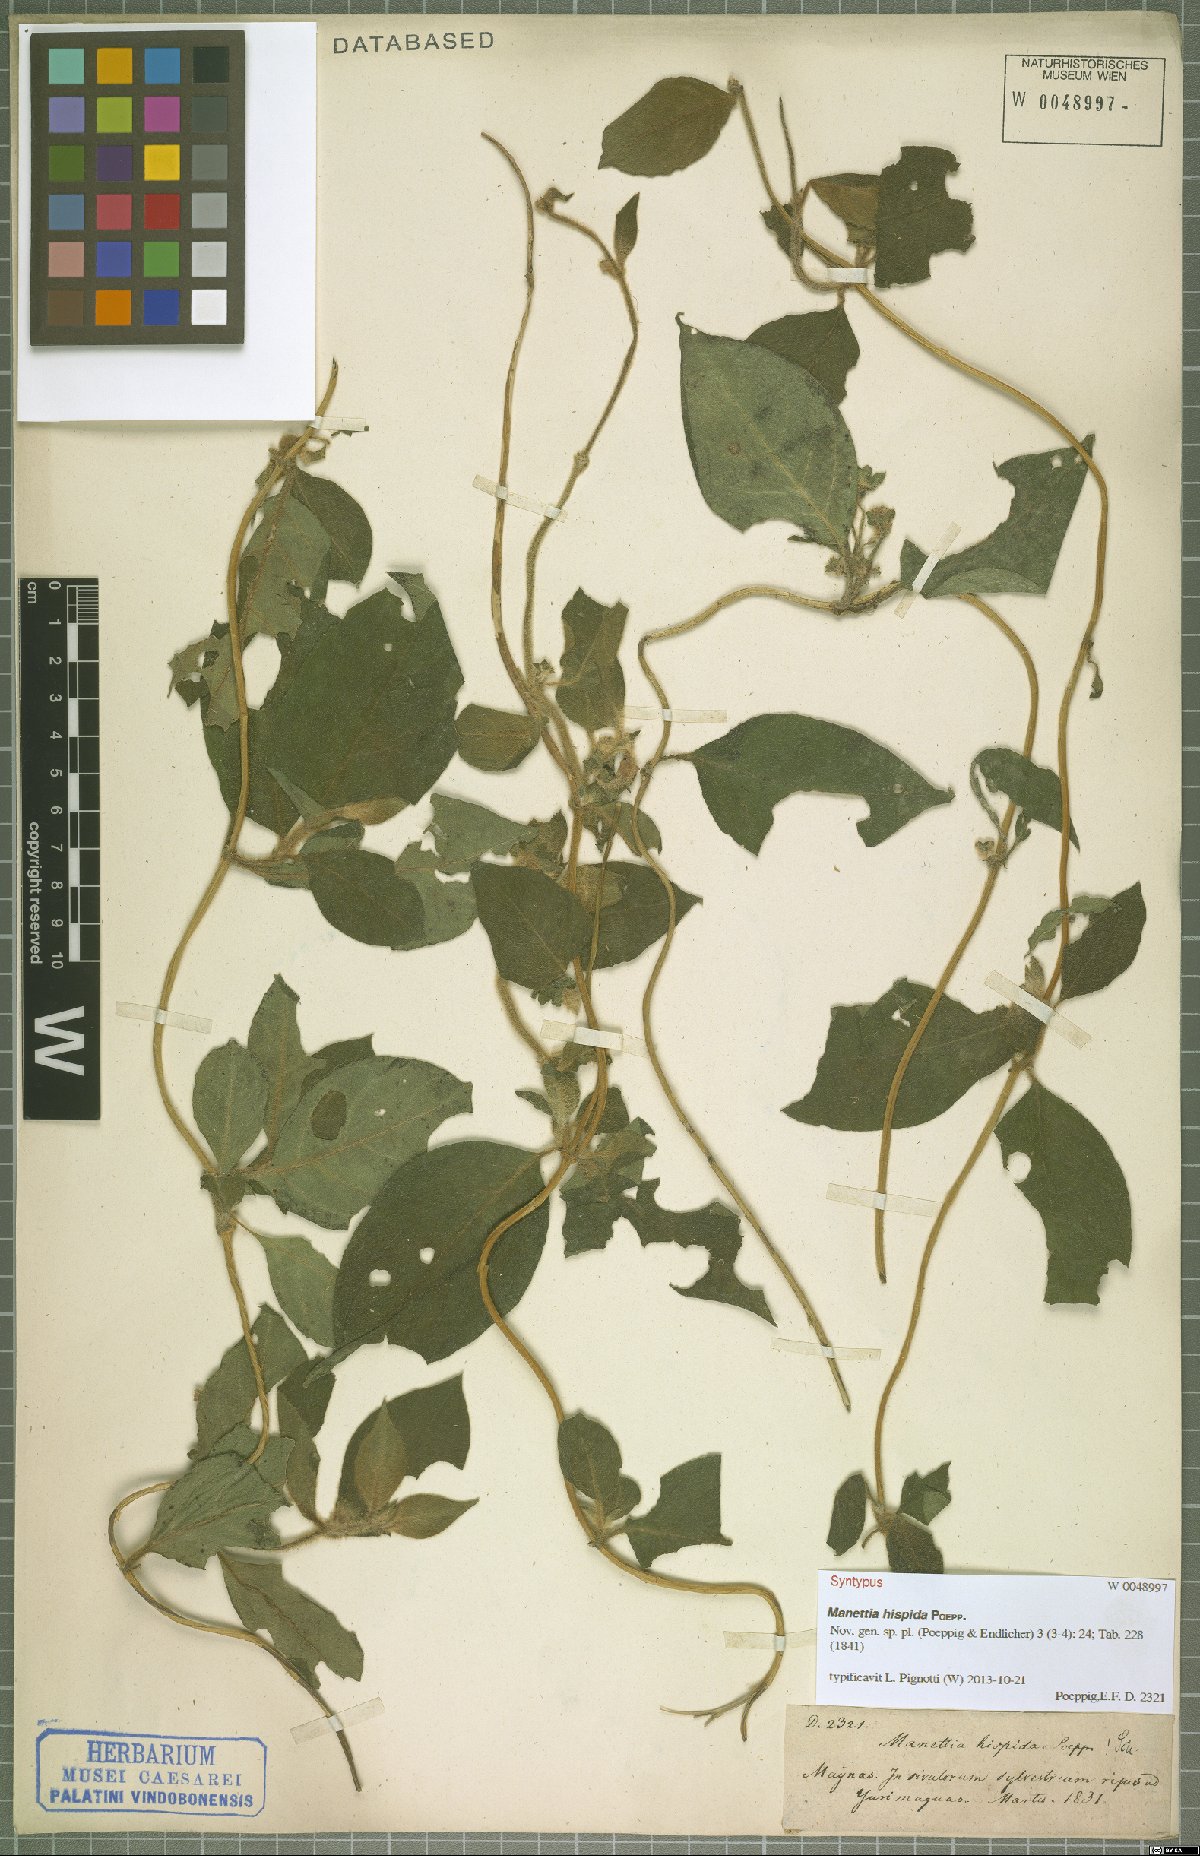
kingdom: Plantae
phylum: Tracheophyta
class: Magnoliopsida
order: Gentianales
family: Rubiaceae
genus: Manettia
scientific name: Manettia hispida
